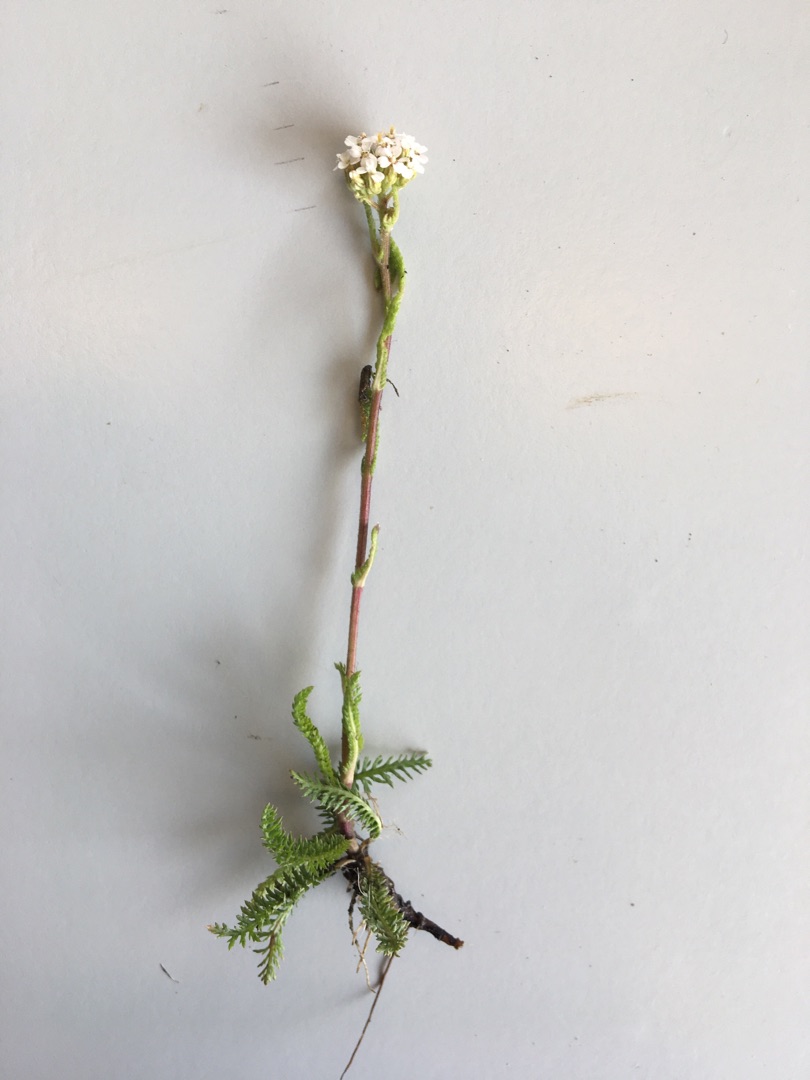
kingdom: Plantae
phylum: Tracheophyta
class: Magnoliopsida
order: Asterales
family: Asteraceae
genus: Achillea
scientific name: Achillea millefolium
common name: Almindelig røllike
